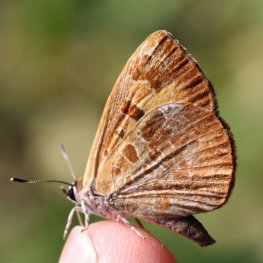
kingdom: Animalia
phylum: Arthropoda
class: Insecta
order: Lepidoptera
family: Lycaenidae
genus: Feniseca
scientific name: Feniseca tarquinius
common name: Harvester
